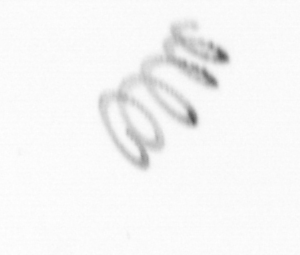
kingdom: Chromista
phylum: Ochrophyta
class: Bacillariophyceae
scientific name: Bacillariophyceae
